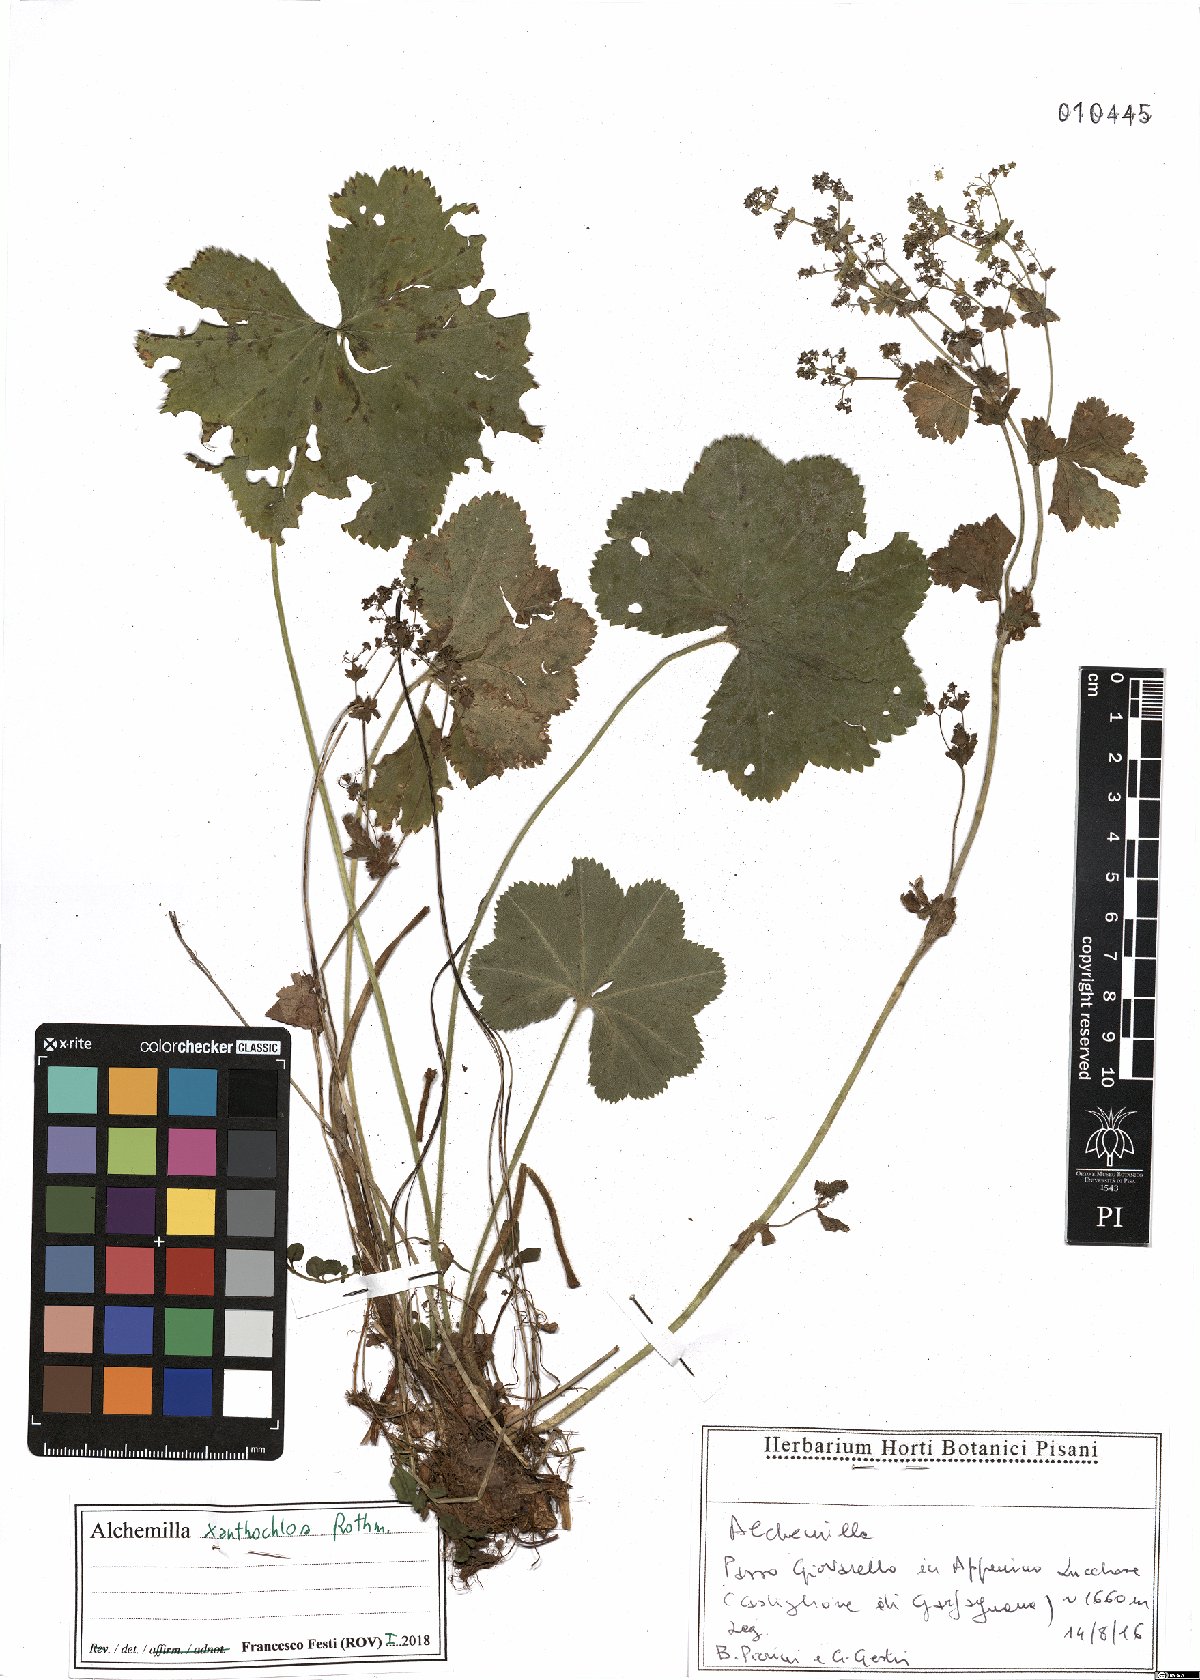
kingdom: Plantae
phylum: Tracheophyta
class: Magnoliopsida
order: Rosales
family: Rosaceae
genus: Alchemilla
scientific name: Alchemilla xanthochlora
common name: Intermediate lady's-mantle
